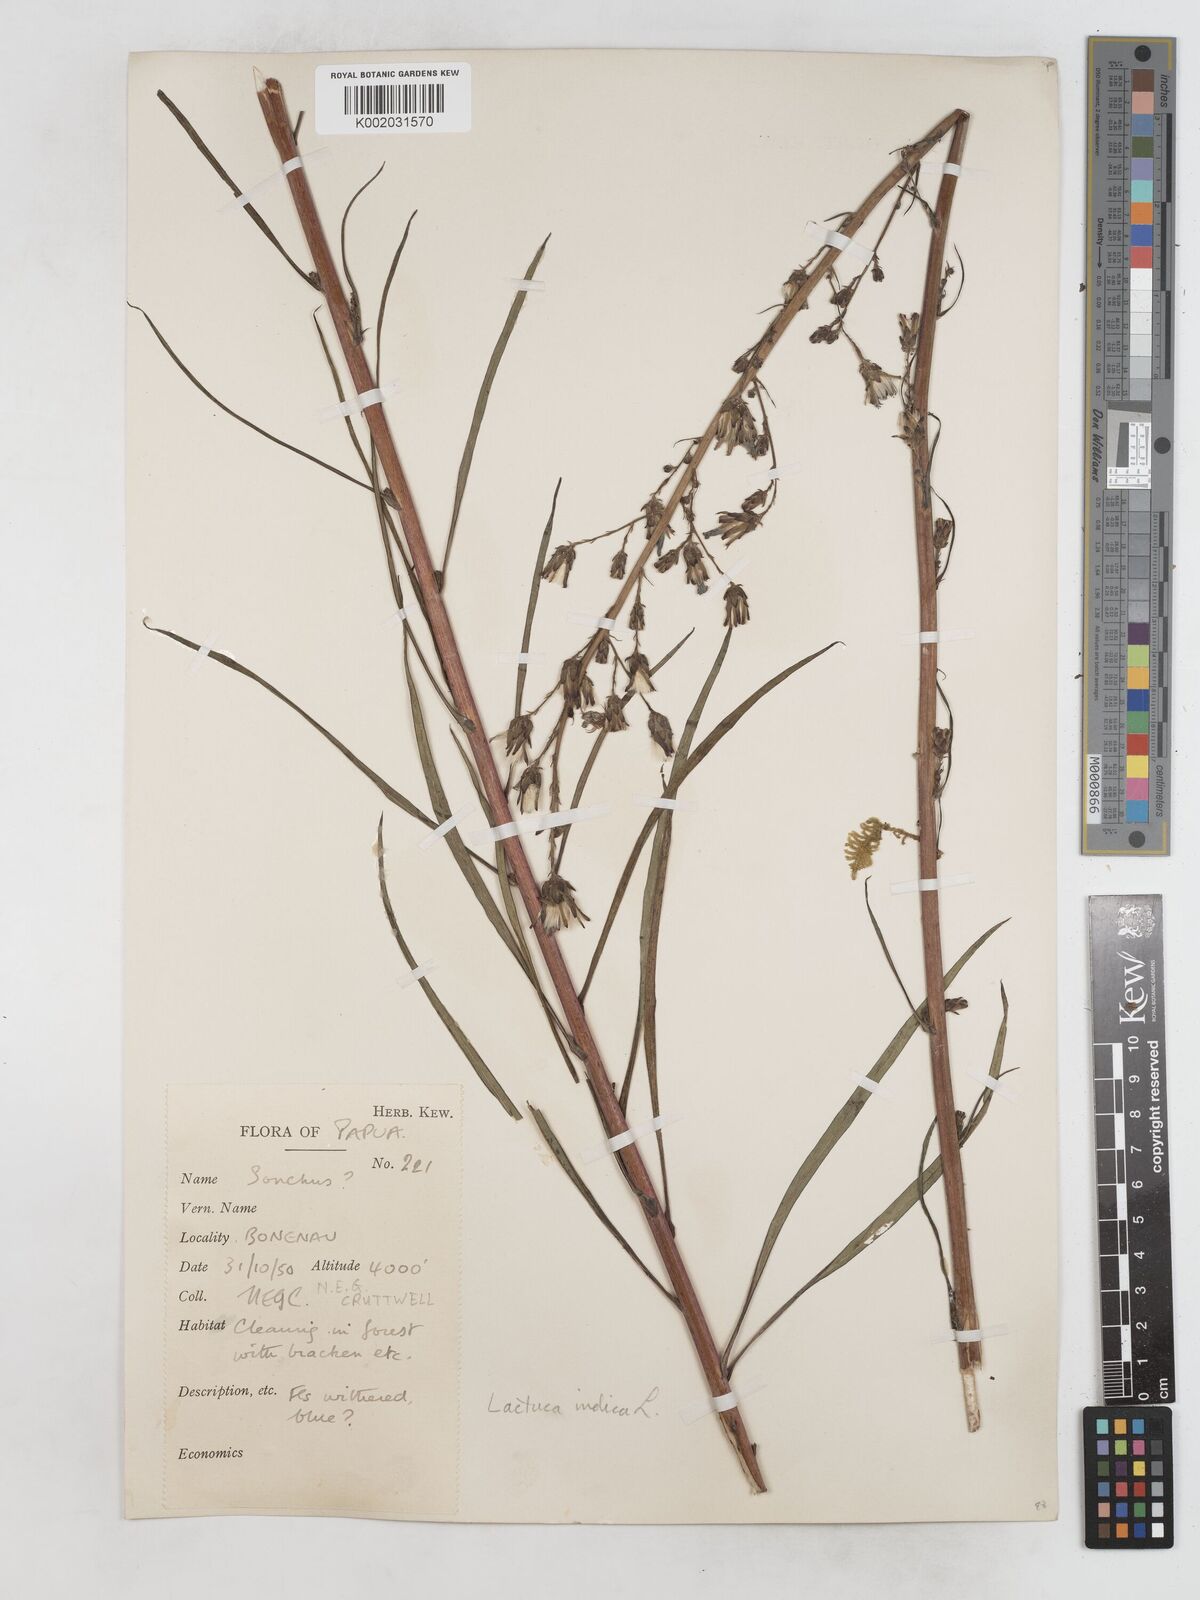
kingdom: Plantae
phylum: Tracheophyta
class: Magnoliopsida
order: Asterales
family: Asteraceae
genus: Lactuca
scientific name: Lactuca indica
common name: Wild lettuce
